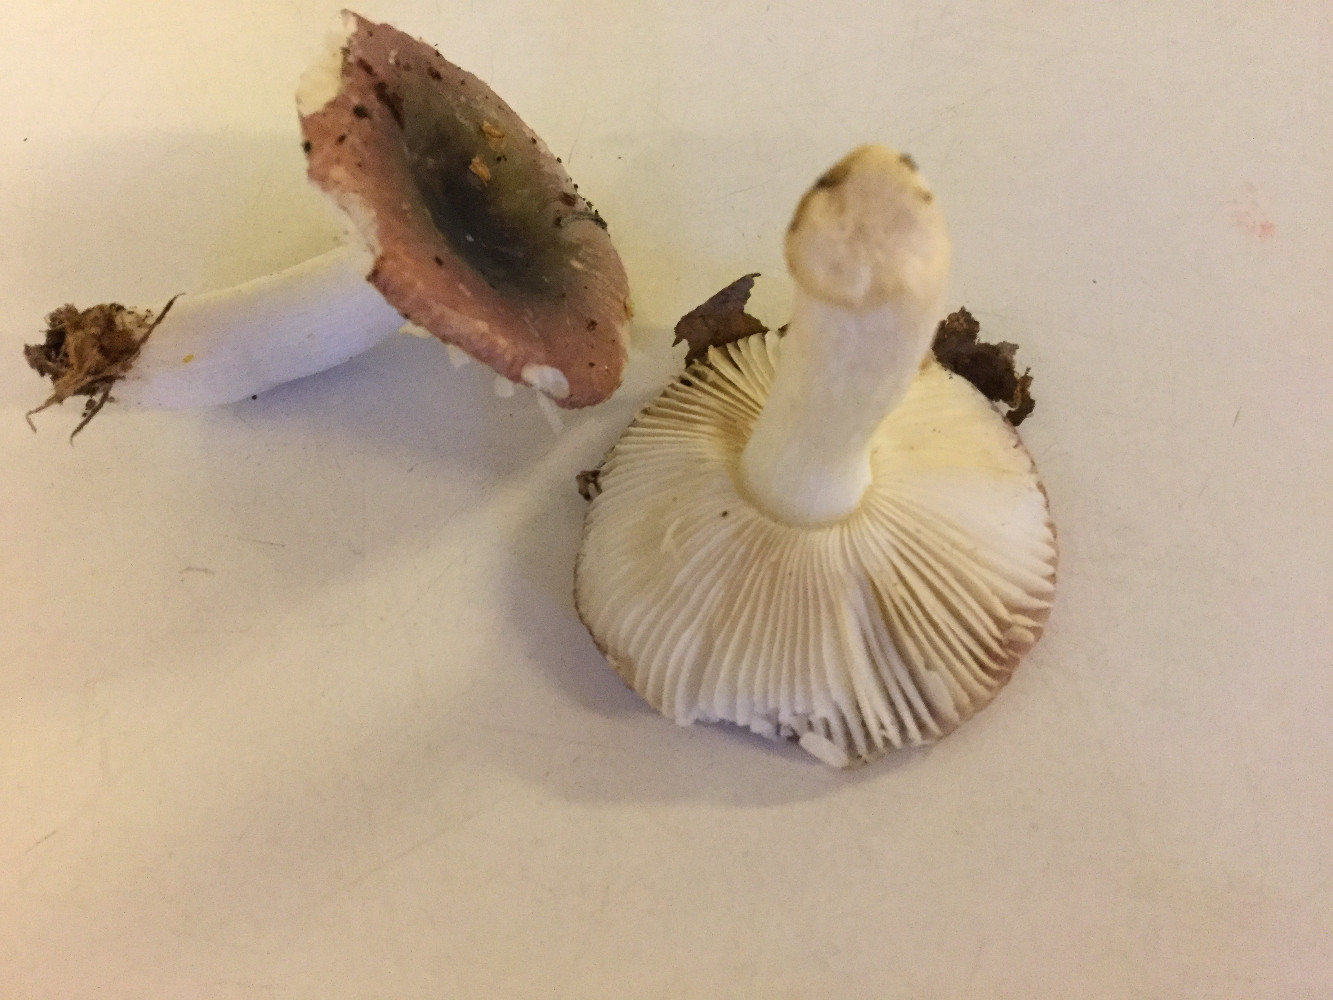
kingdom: Fungi
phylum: Basidiomycota
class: Agaricomycetes
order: Russulales
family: Russulaceae
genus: Russula
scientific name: Russula fragilis
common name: savbladet skørhat
